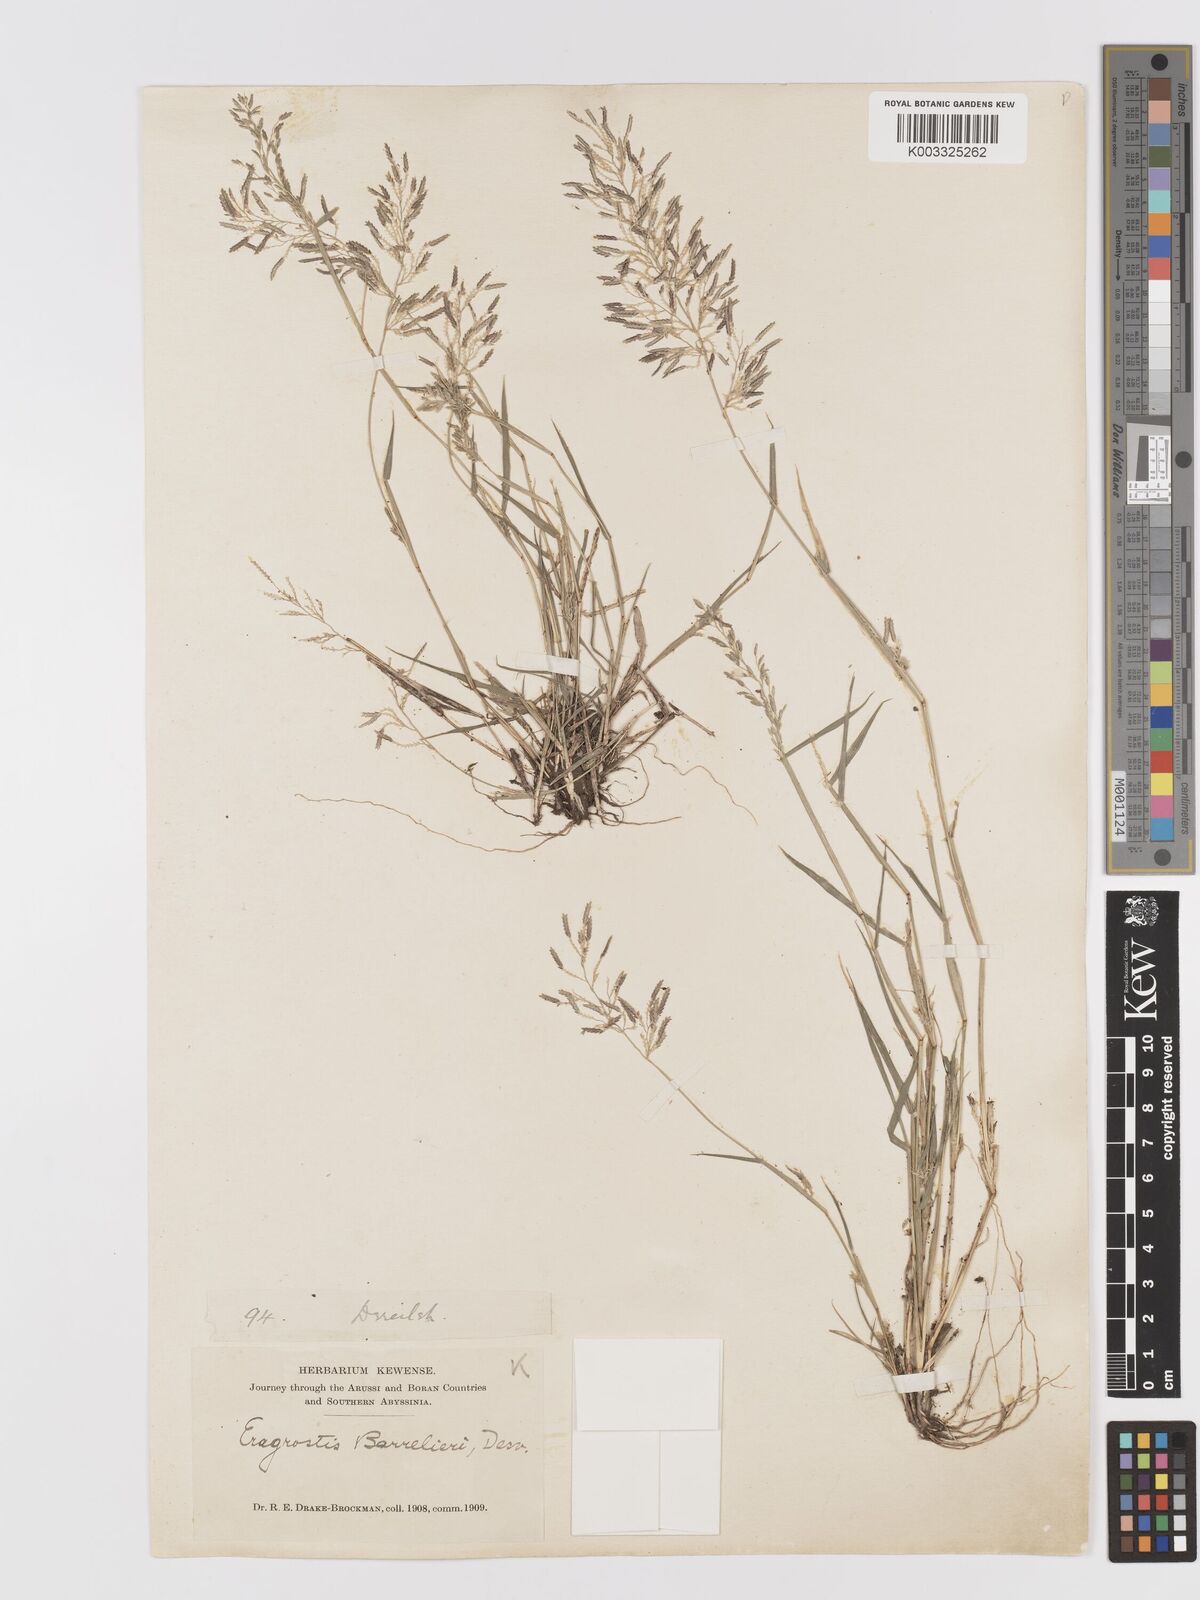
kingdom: Plantae
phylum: Tracheophyta
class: Liliopsida
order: Poales
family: Poaceae
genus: Eragrostis
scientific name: Eragrostis barrelieri
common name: Mediterranean lovegrass
